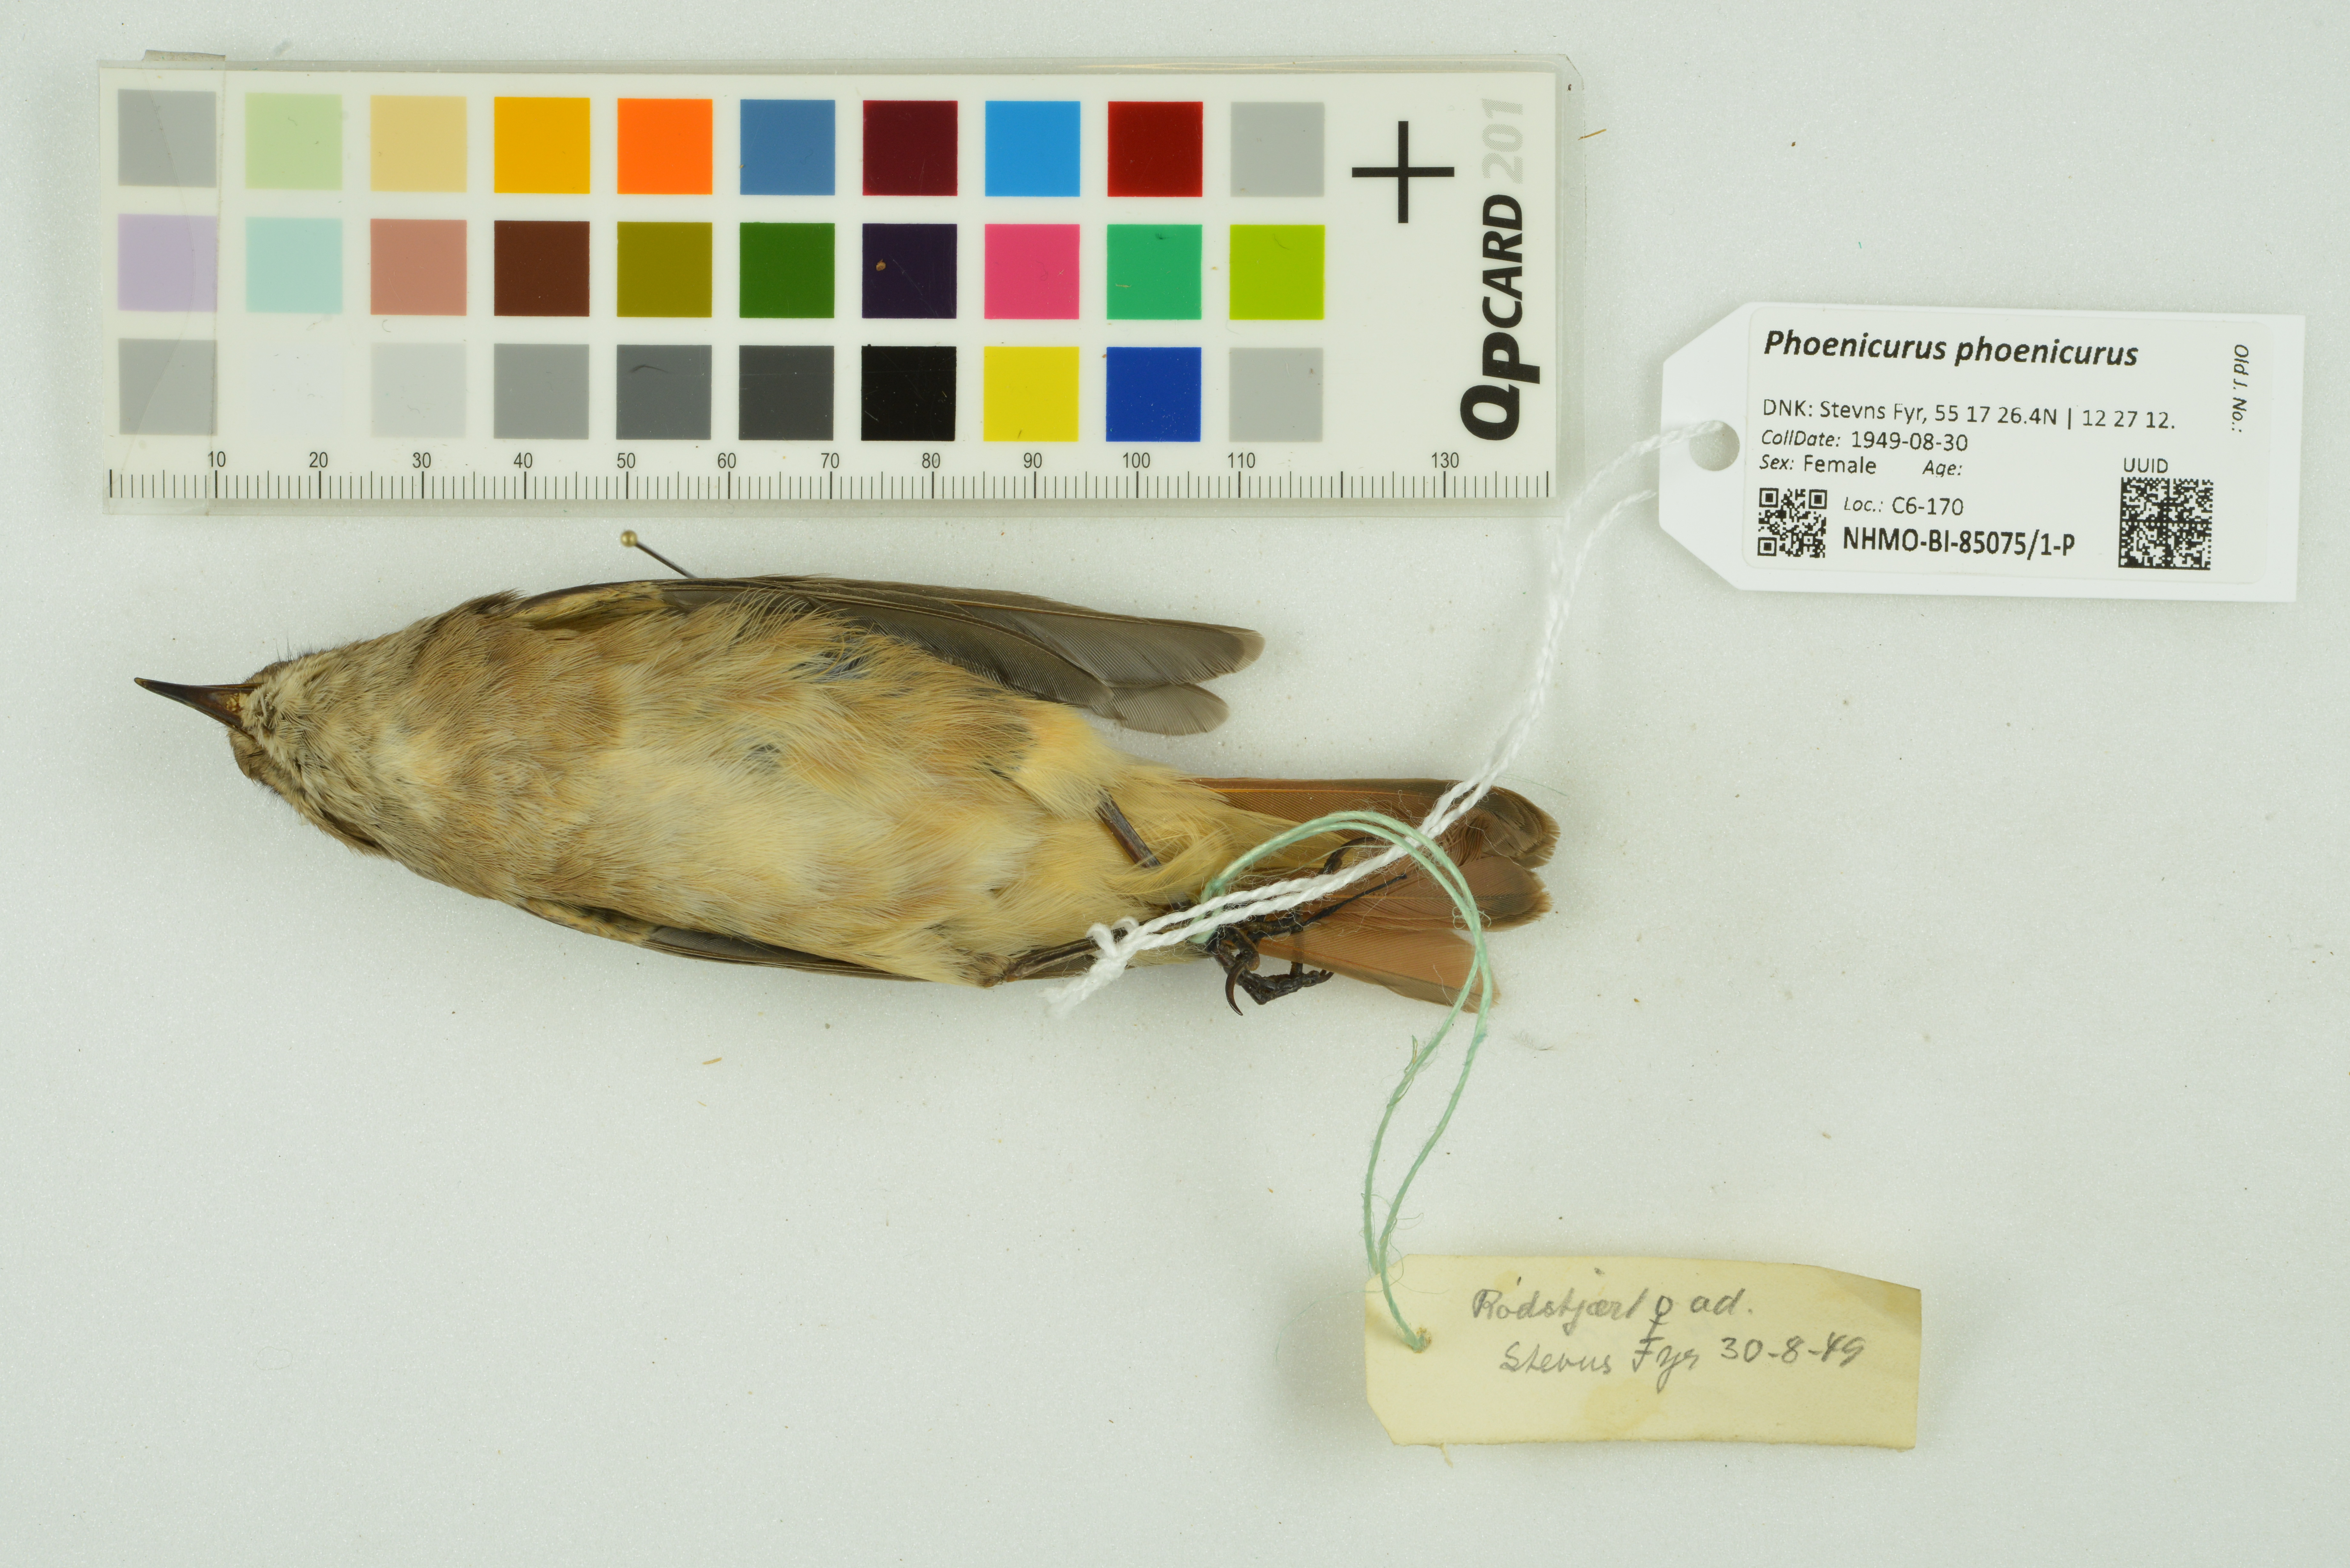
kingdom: Animalia
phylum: Chordata
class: Aves
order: Passeriformes
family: Muscicapidae
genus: Phoenicurus
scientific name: Phoenicurus phoenicurus
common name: Common redstart
